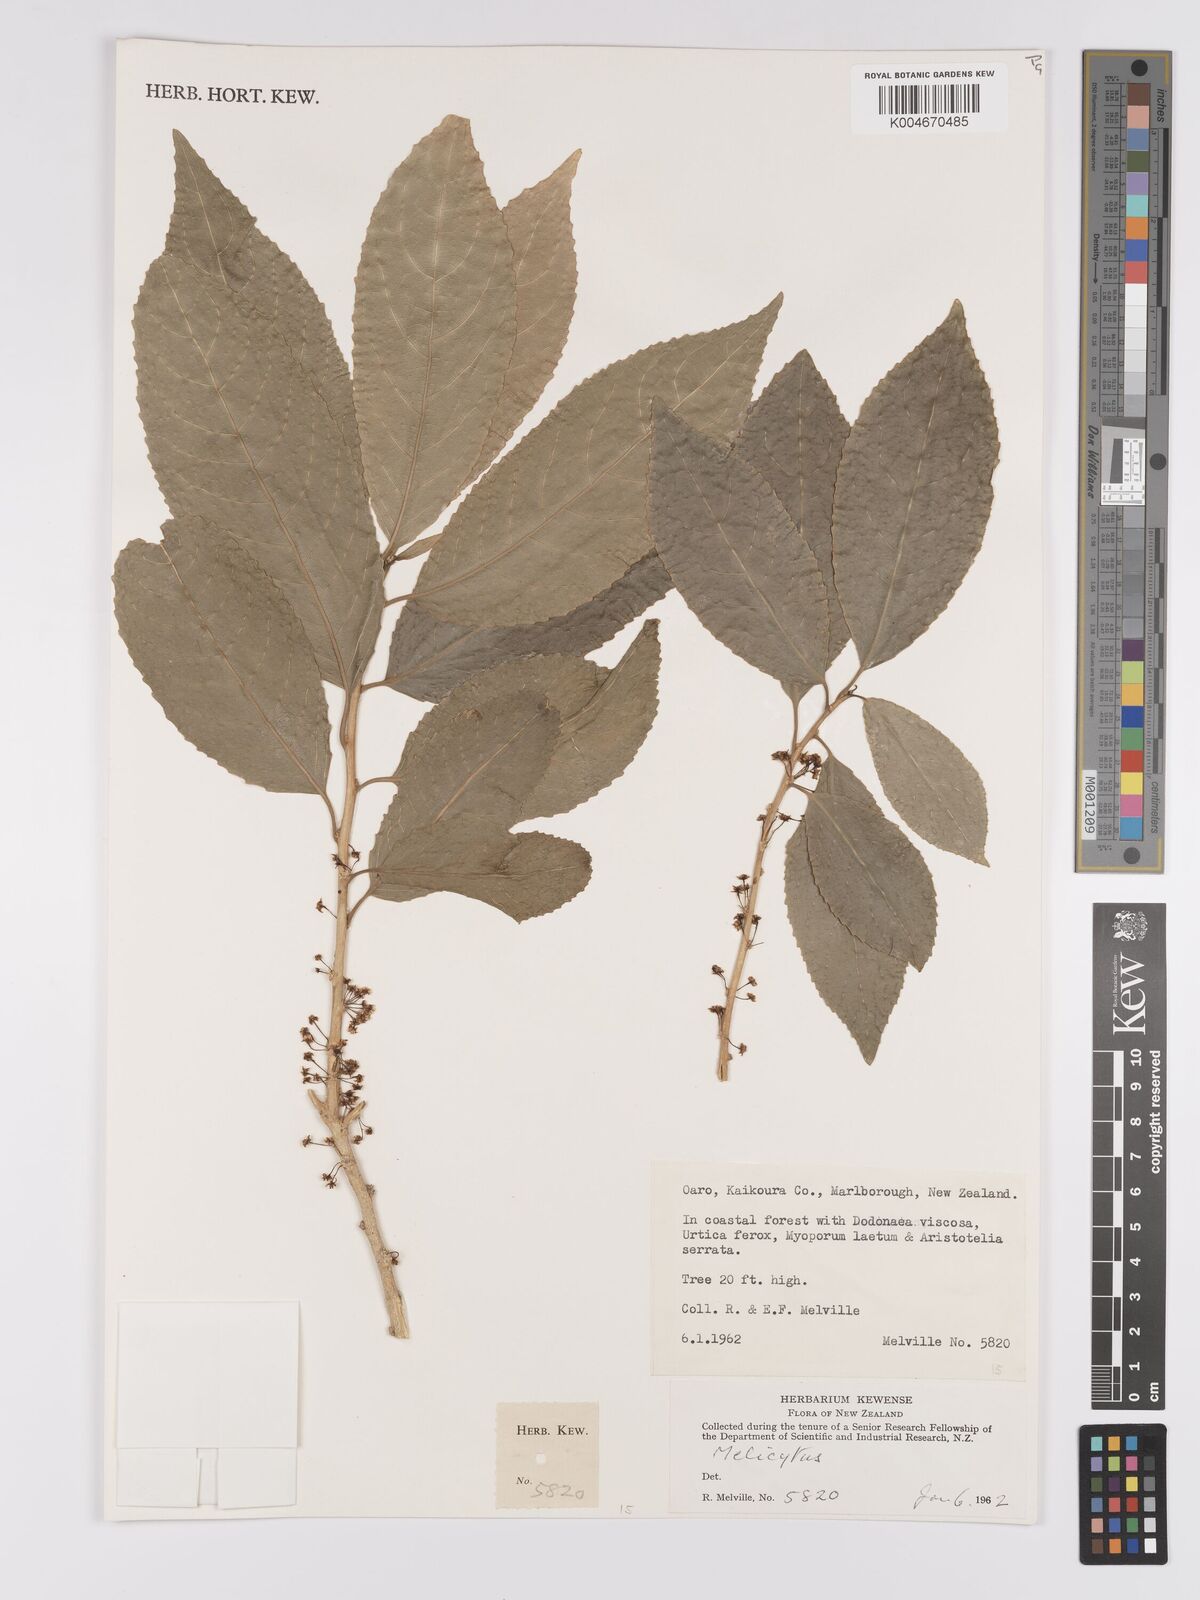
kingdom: Plantae
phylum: Tracheophyta
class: Magnoliopsida
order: Malpighiales
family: Violaceae
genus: Melicytus
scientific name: Melicytus
